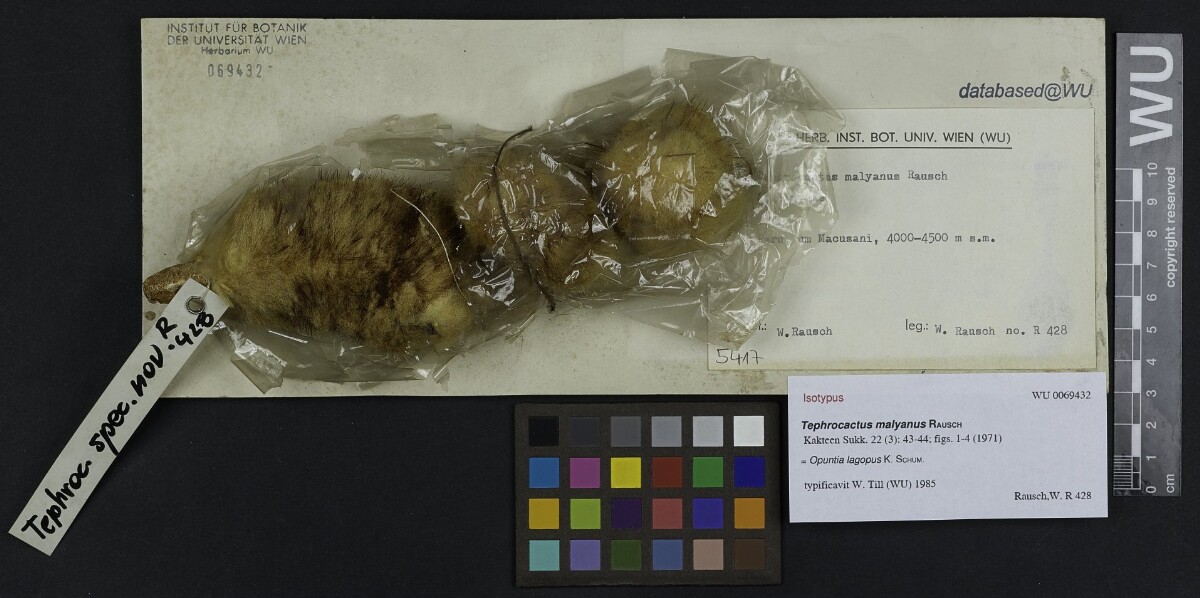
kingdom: Plantae
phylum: Tracheophyta
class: Magnoliopsida
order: Caryophyllales
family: Cactaceae
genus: Punotia
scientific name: Punotia lagopus
